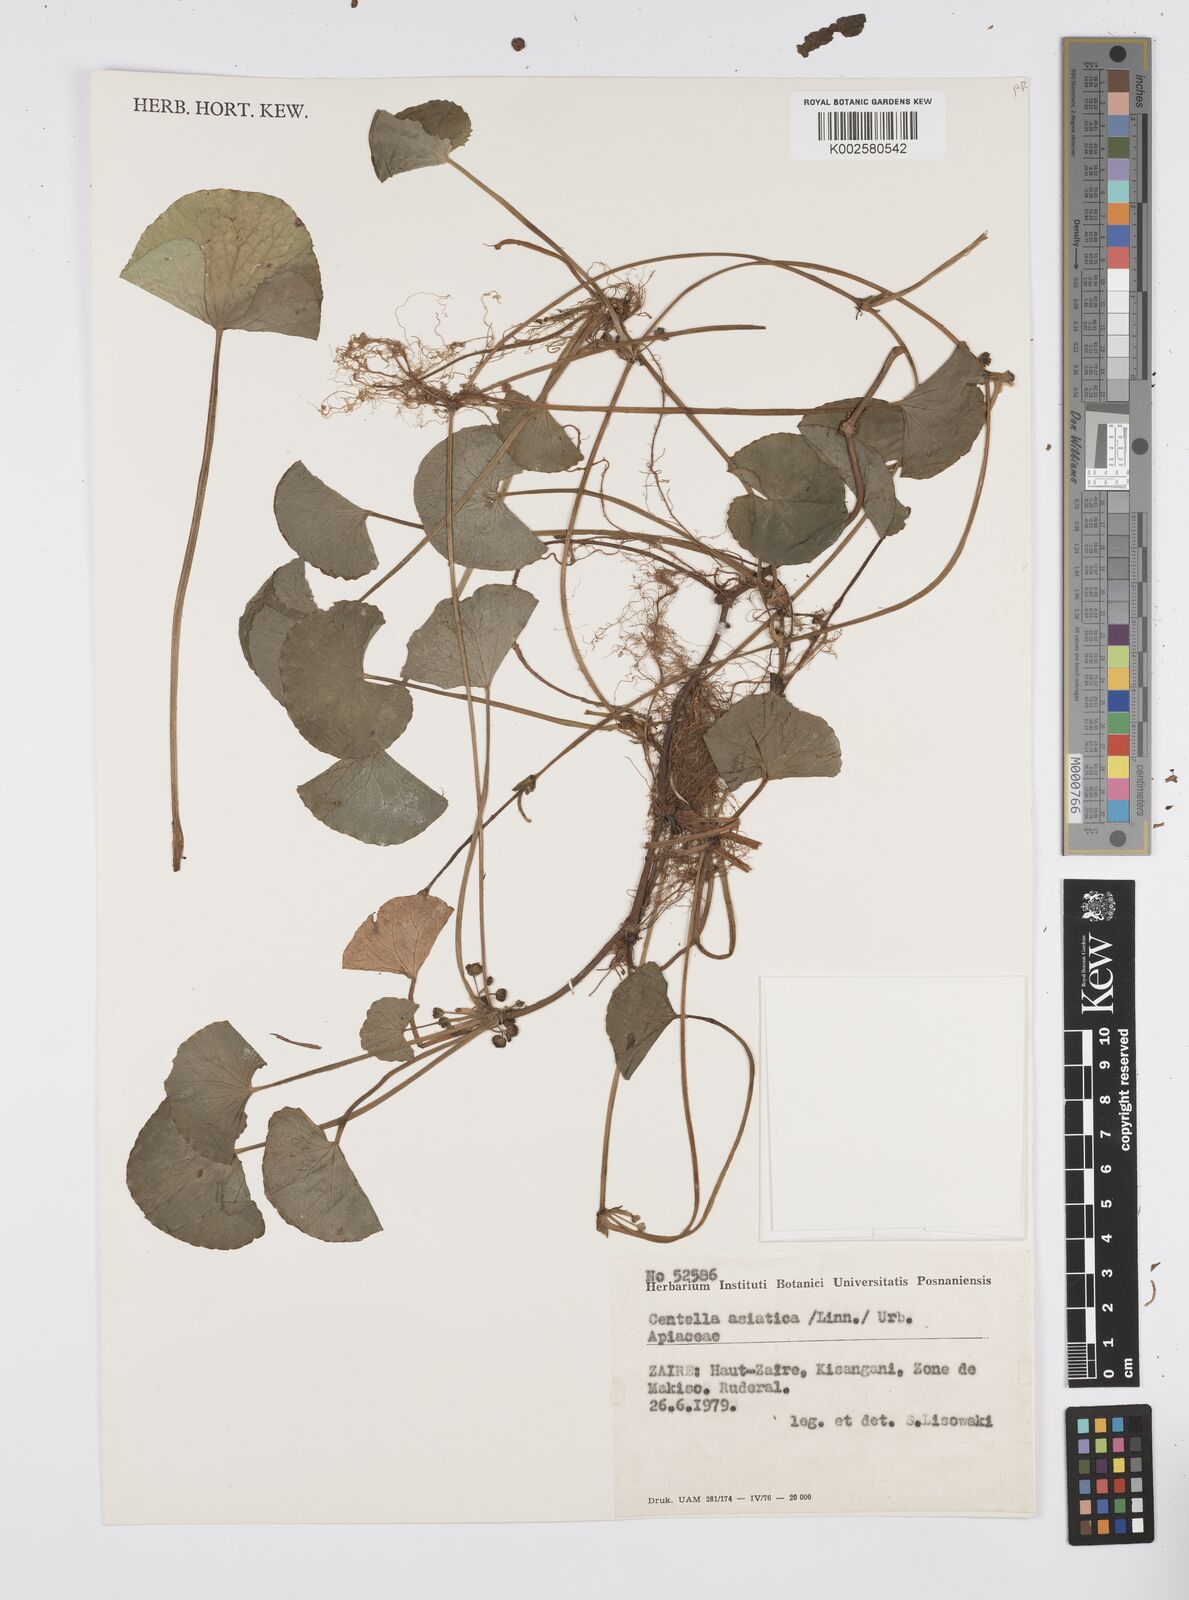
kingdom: Plantae
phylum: Tracheophyta
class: Magnoliopsida
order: Apiales
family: Apiaceae
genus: Centella
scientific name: Centella asiatica
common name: Spadeleaf
